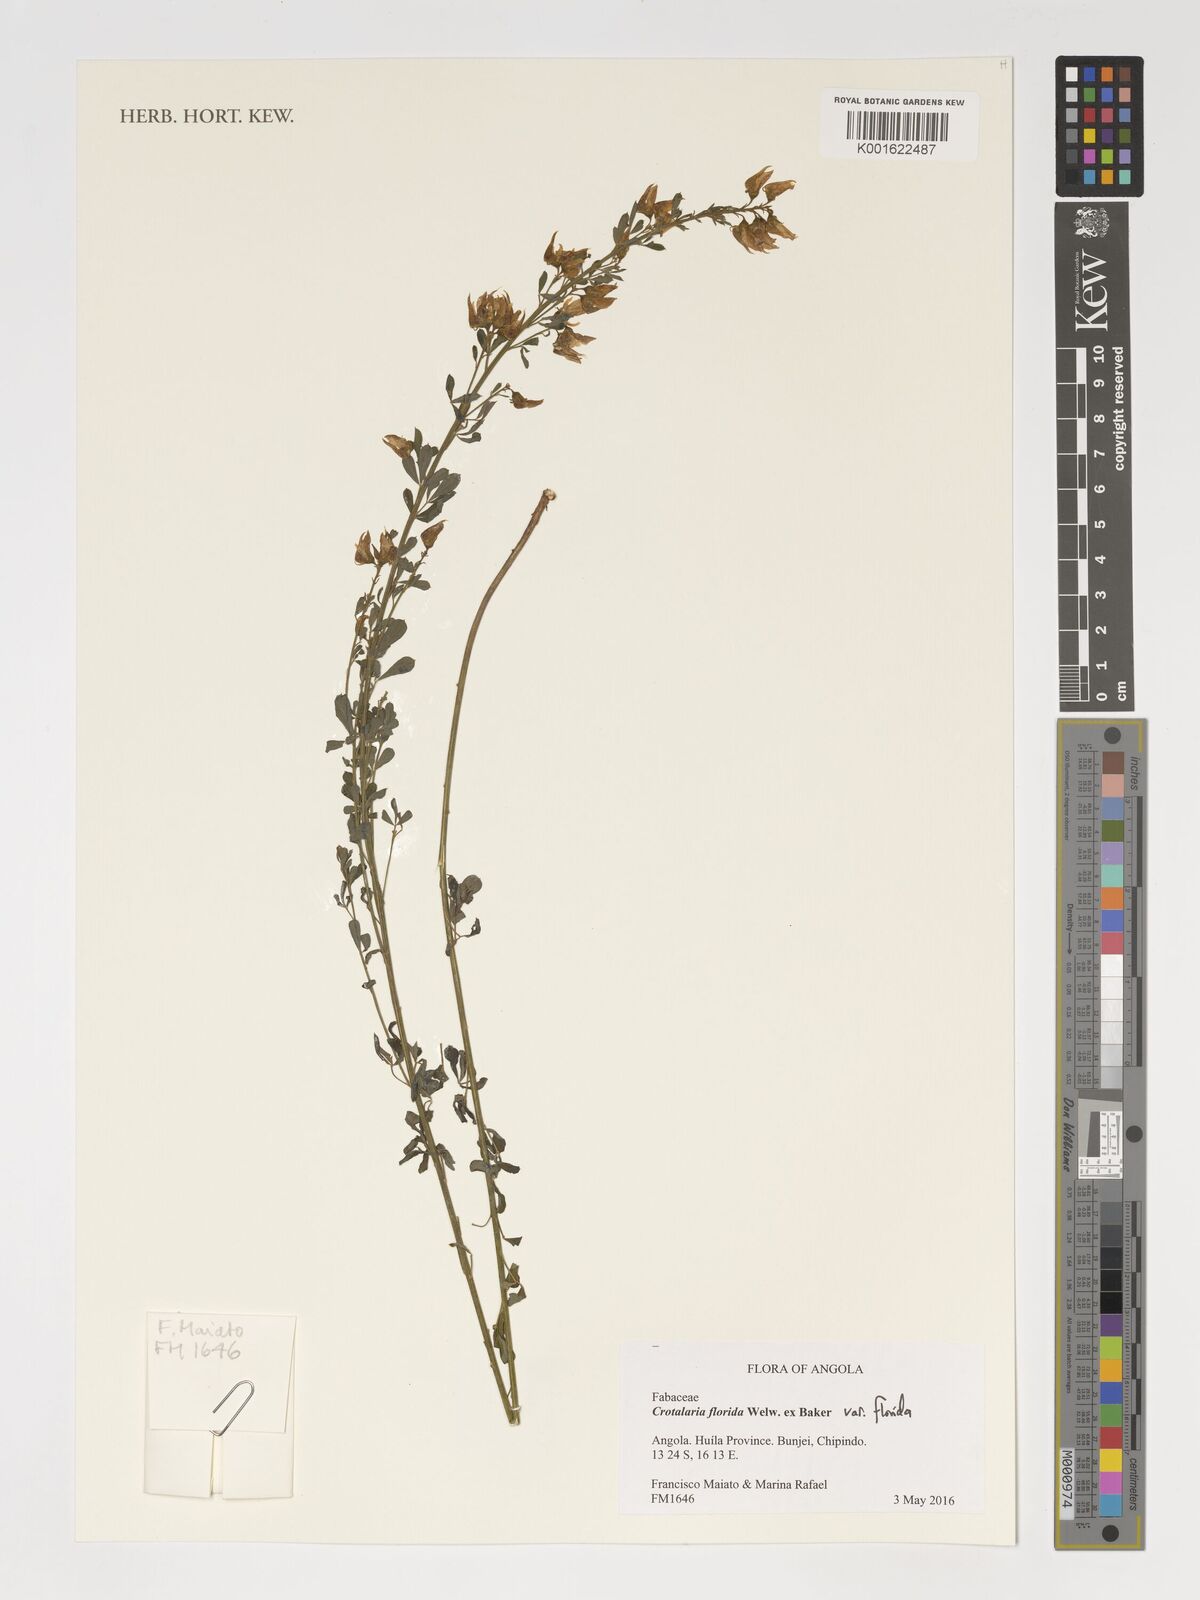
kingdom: Plantae
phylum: Tracheophyta
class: Magnoliopsida
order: Fabales
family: Fabaceae
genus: Crotalaria
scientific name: Crotalaria florida
